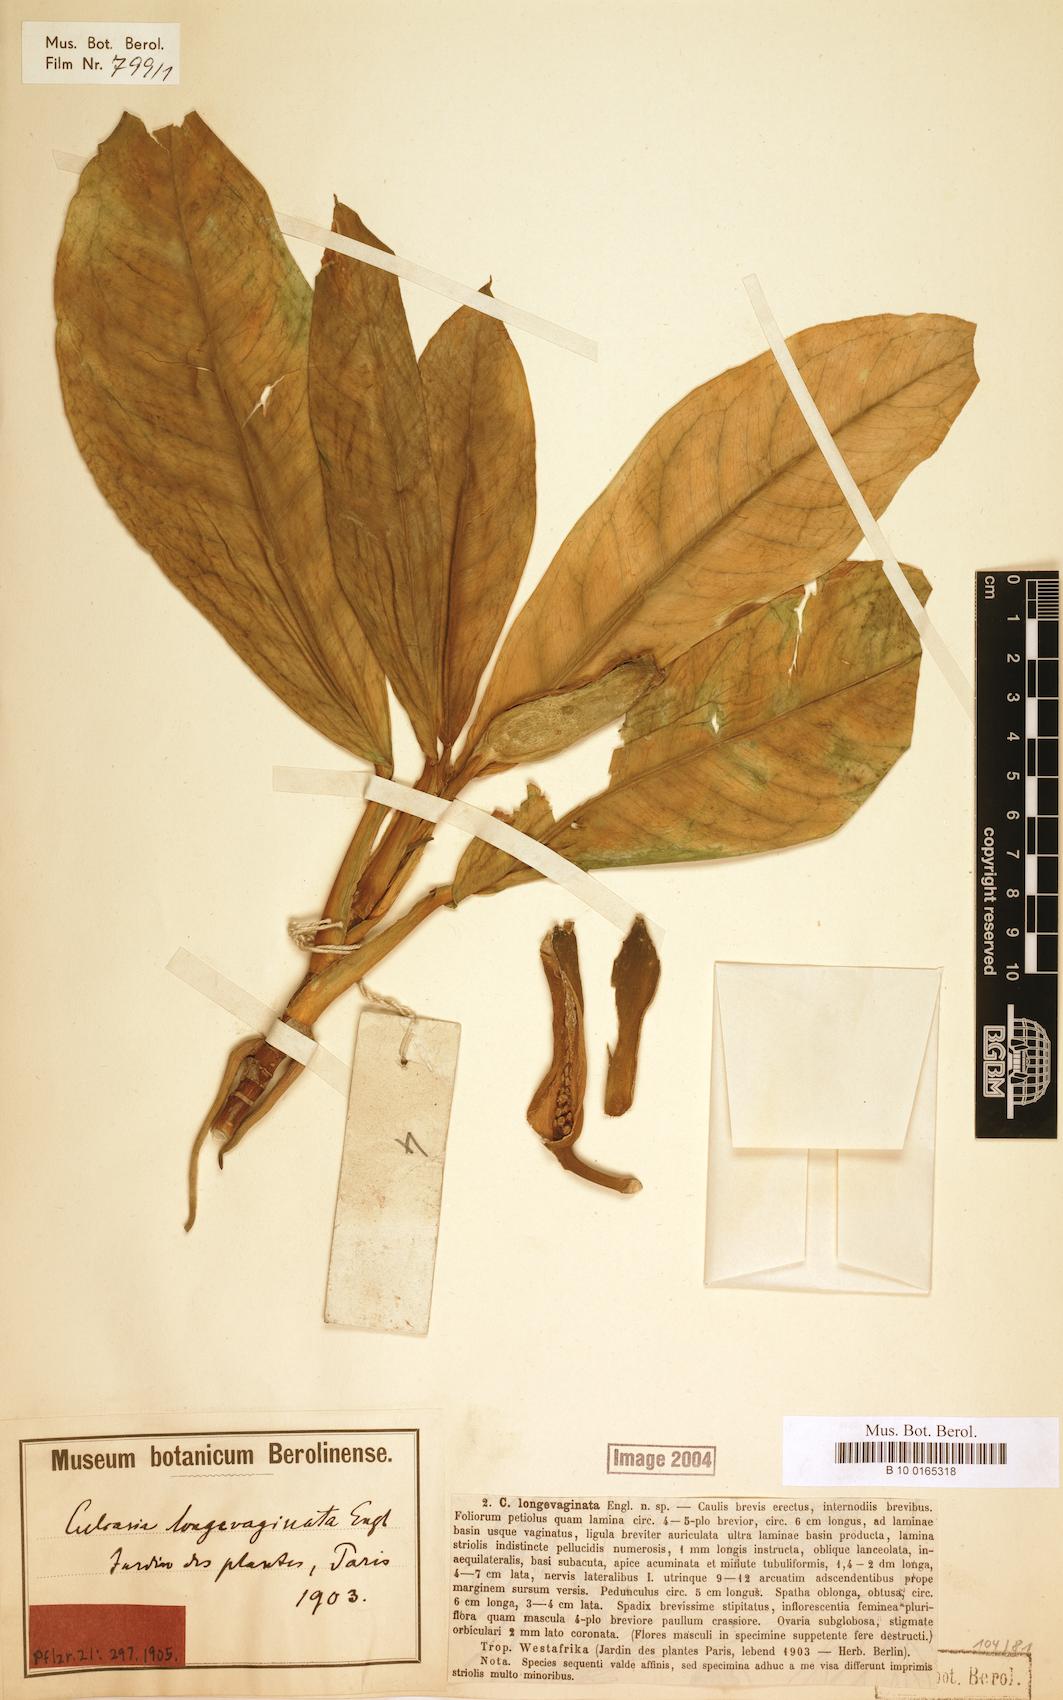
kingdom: Plantae
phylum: Tracheophyta
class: Liliopsida
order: Alismatales
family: Araceae
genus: Culcasia
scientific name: Culcasia longevaginata
